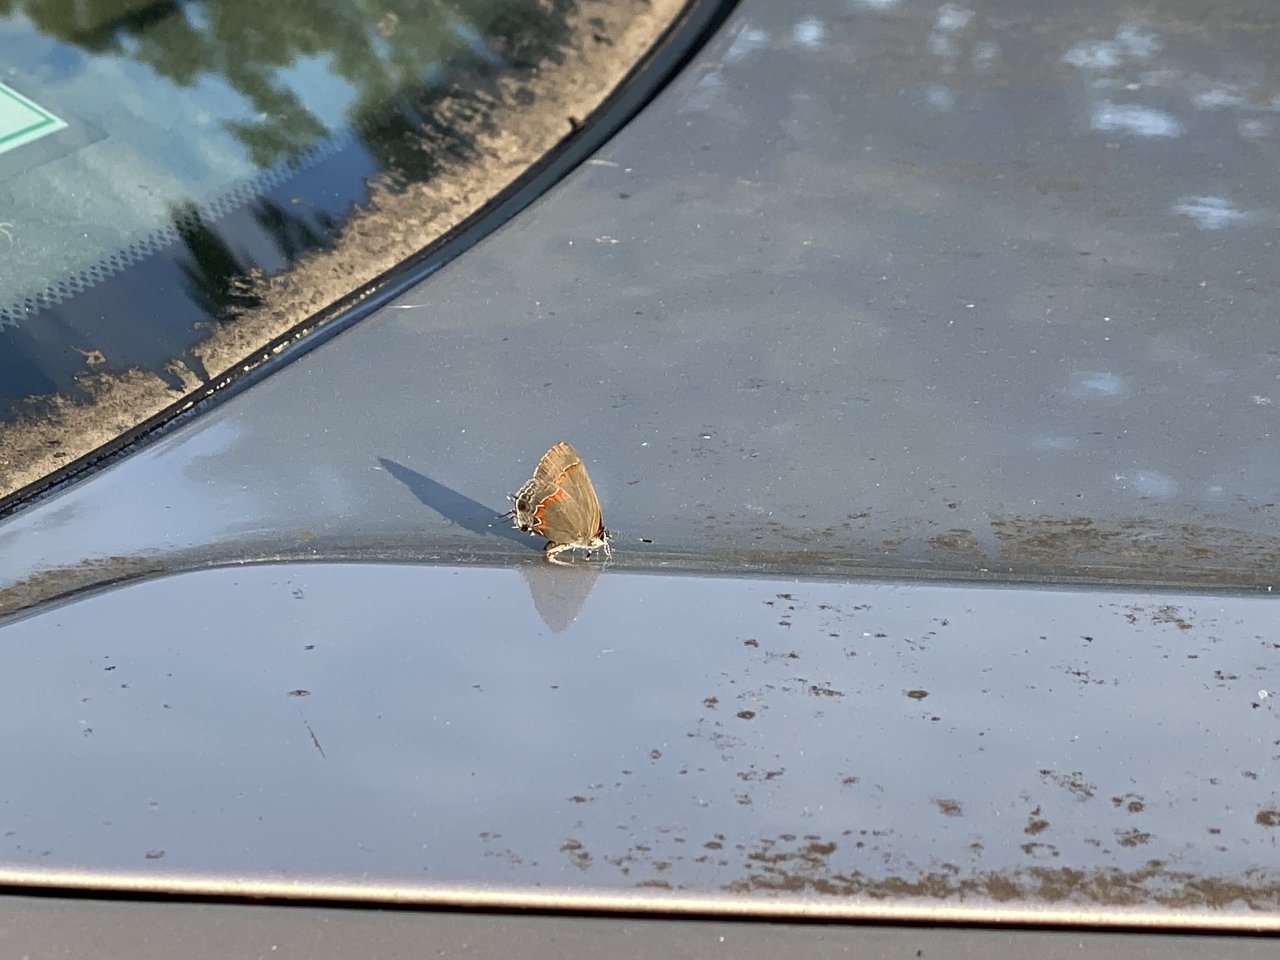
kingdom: Animalia
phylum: Arthropoda
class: Insecta
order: Lepidoptera
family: Lycaenidae
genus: Calycopis
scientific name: Calycopis cecrops
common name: Red-banded Hairstreak
